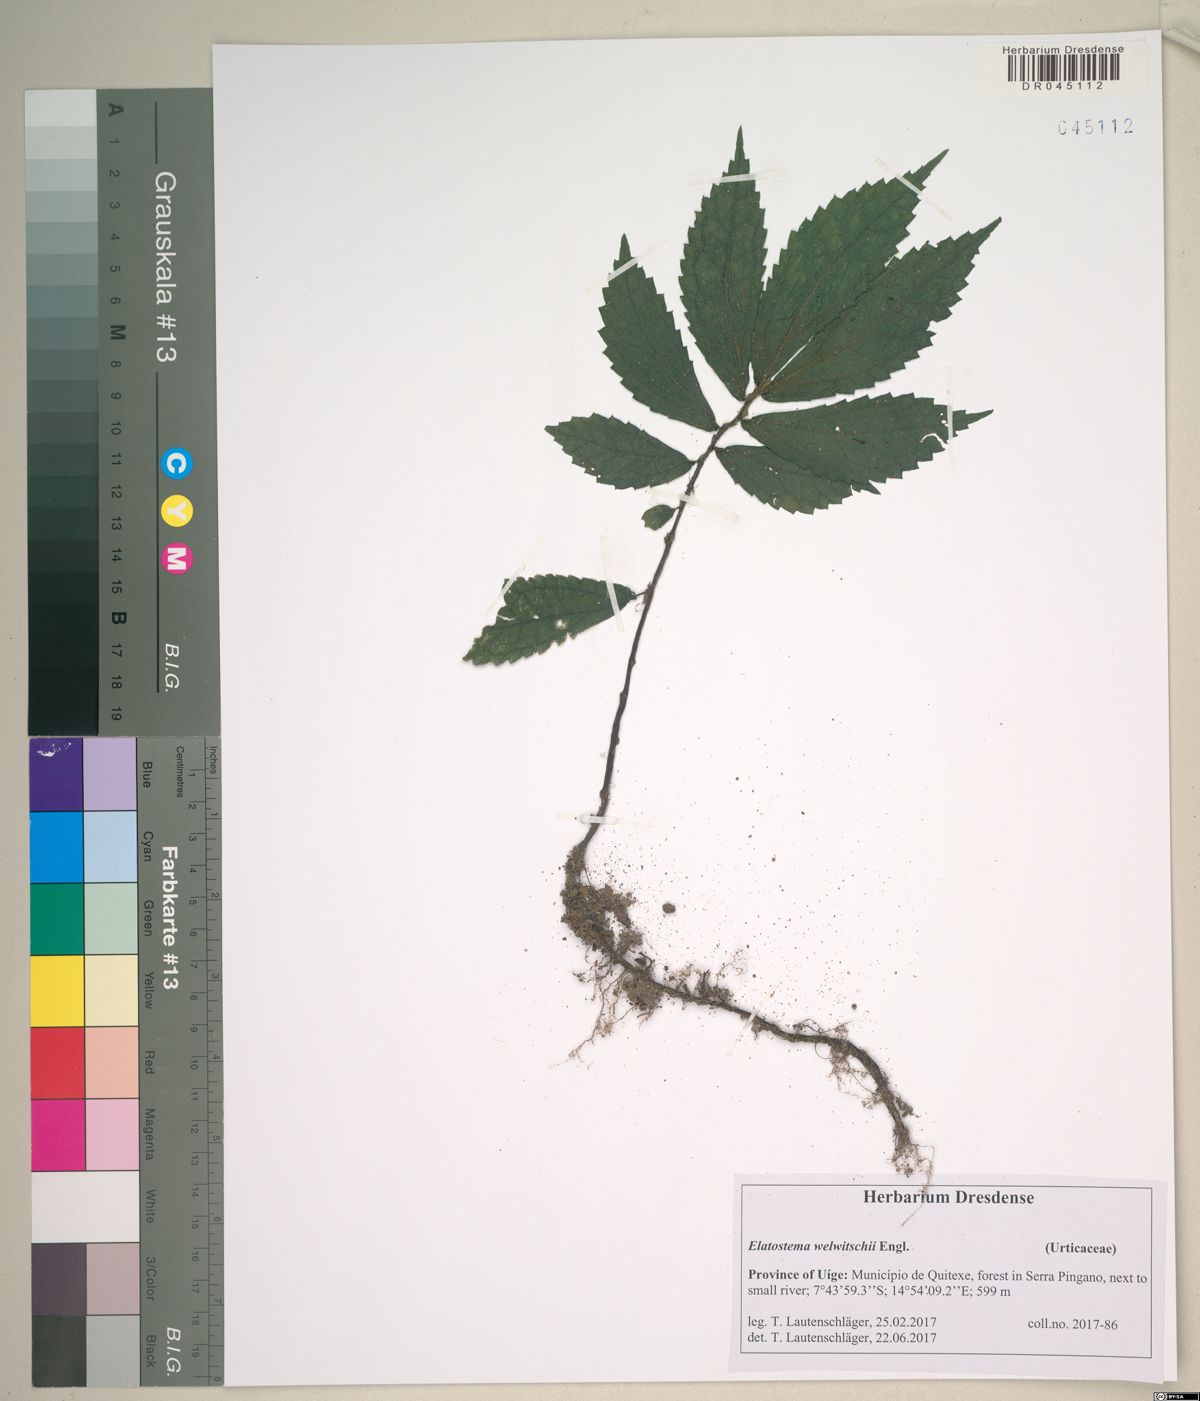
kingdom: Plantae
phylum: Tracheophyta
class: Magnoliopsida
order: Rosales
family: Urticaceae
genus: Elatostema
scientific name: Elatostema welwitschii
